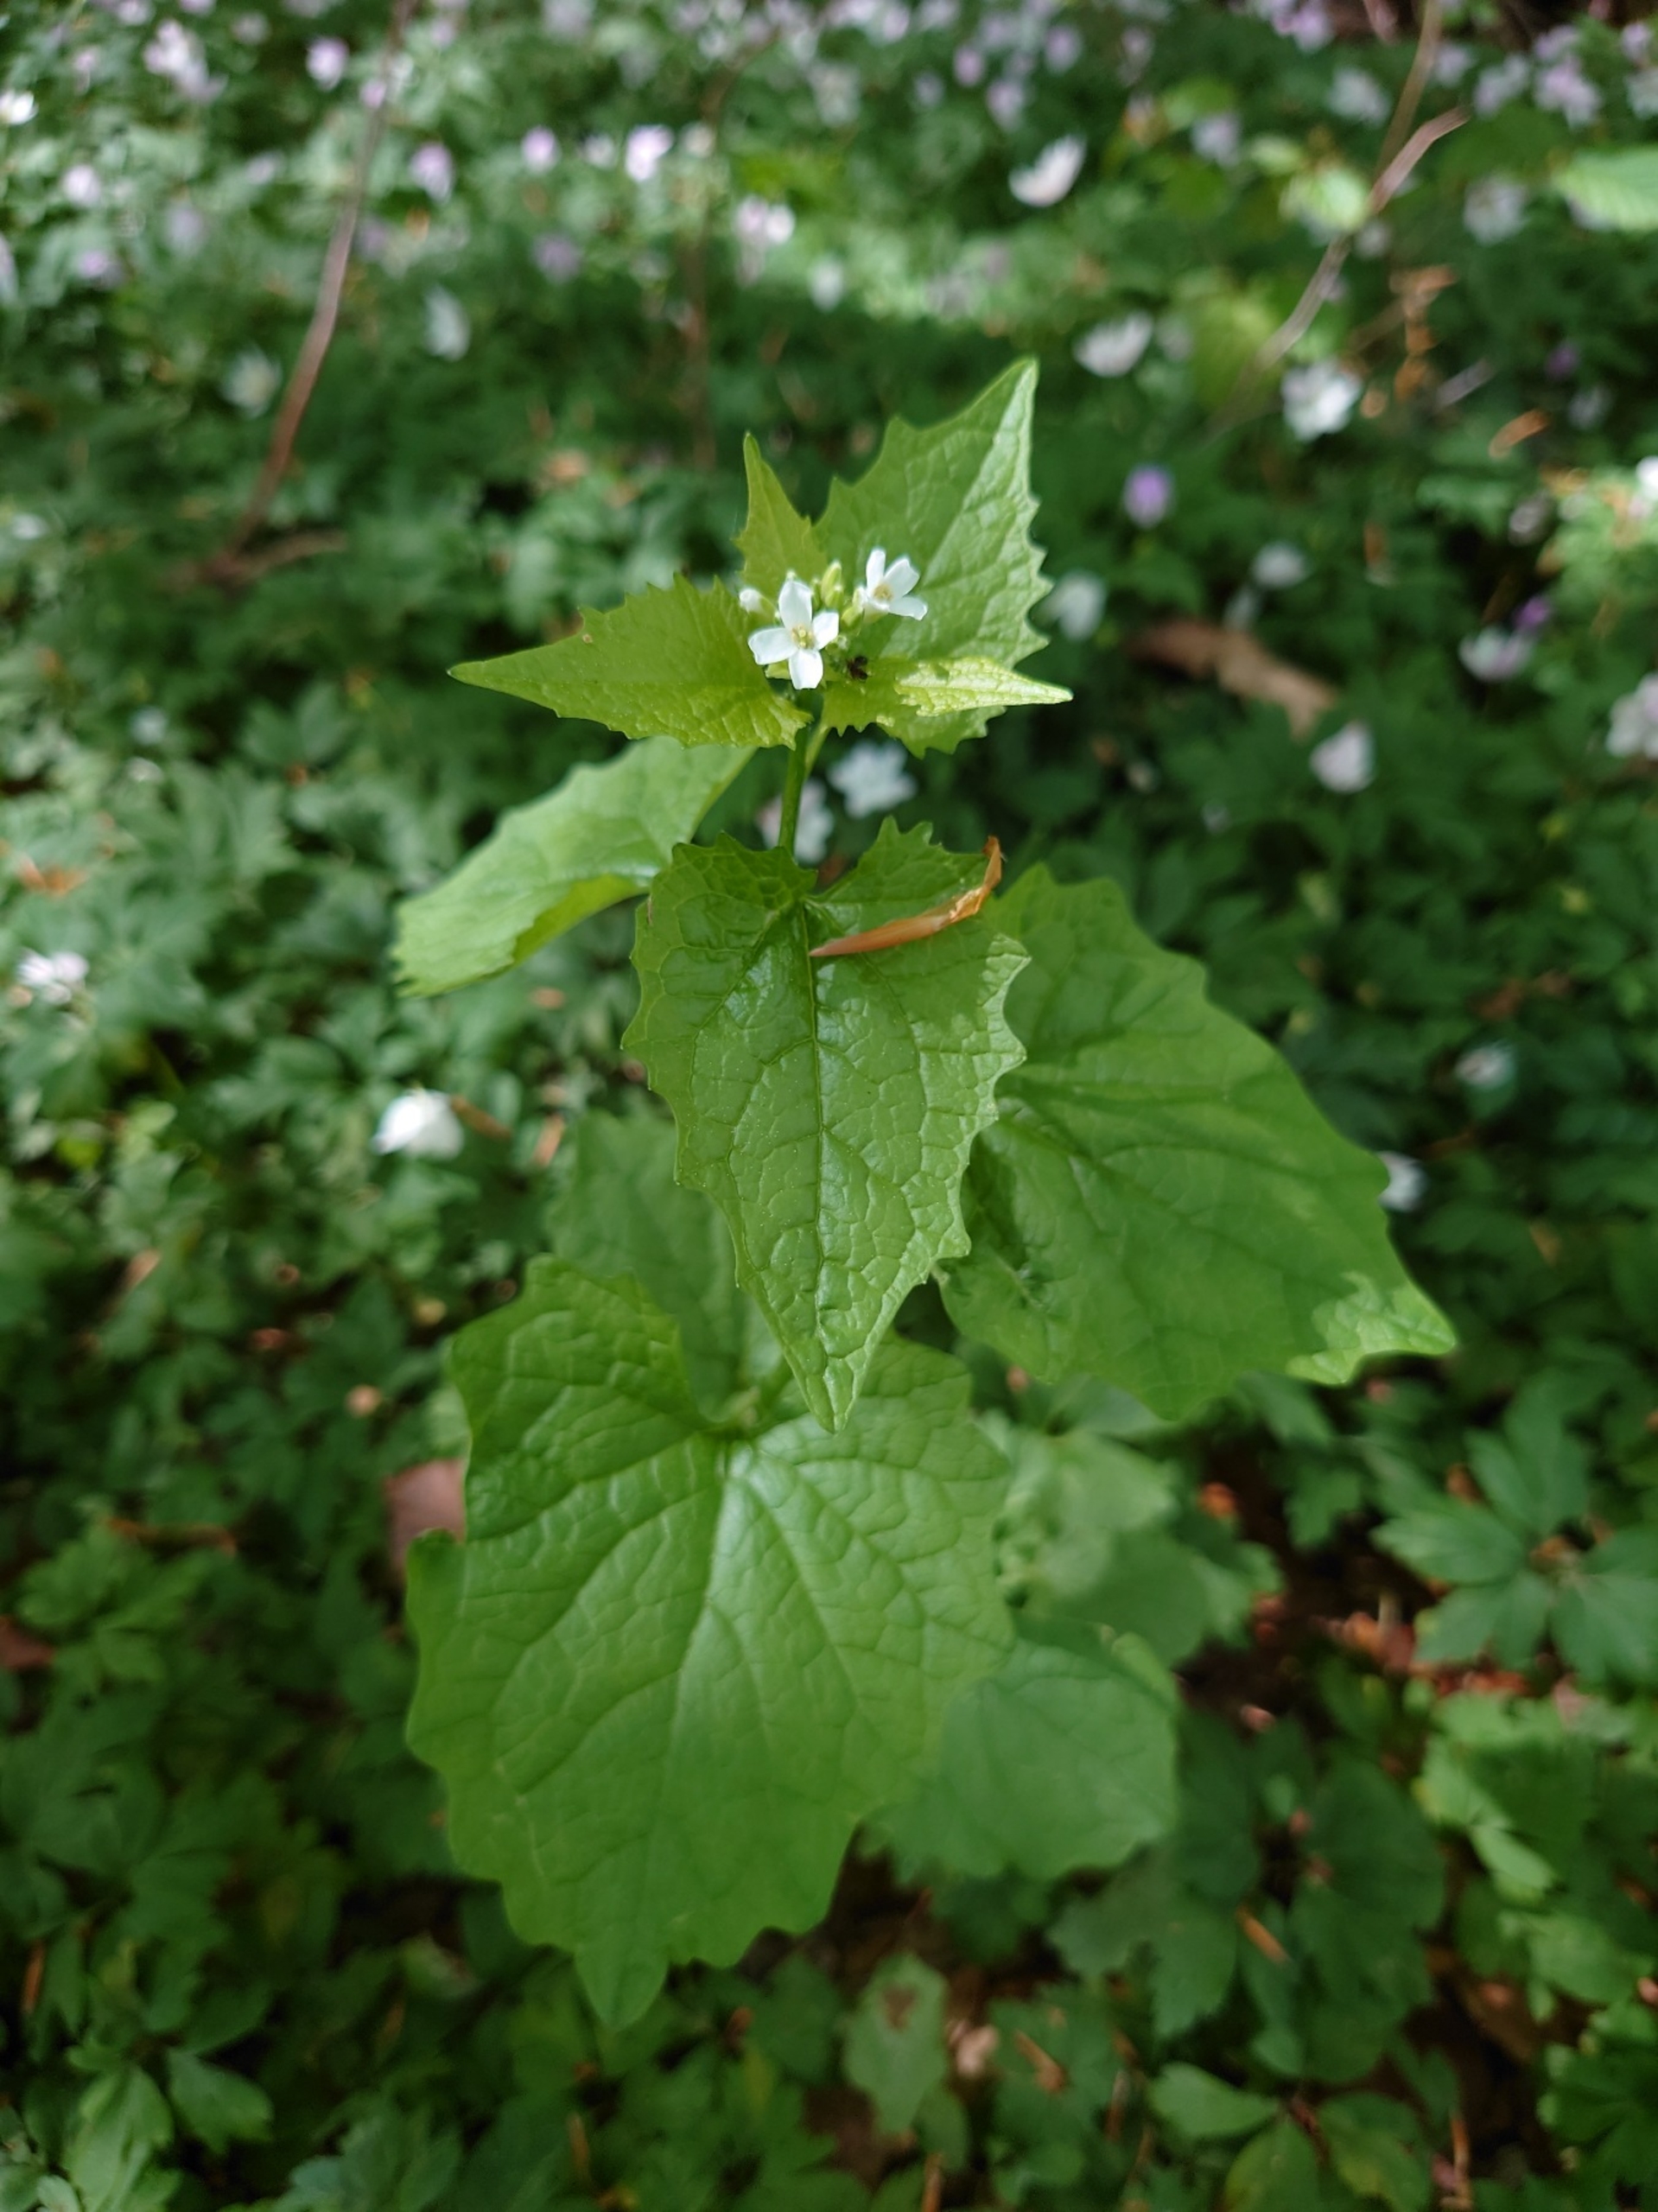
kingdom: Plantae
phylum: Tracheophyta
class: Magnoliopsida
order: Brassicales
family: Brassicaceae
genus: Alliaria
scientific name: Alliaria petiolata
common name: Løgkarse
